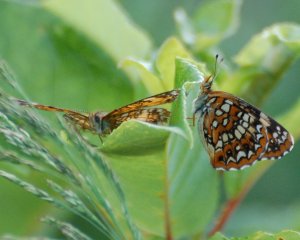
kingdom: Animalia
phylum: Arthropoda
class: Insecta
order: Lepidoptera
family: Nymphalidae
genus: Chlosyne
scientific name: Chlosyne harrisii
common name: Harris's Checkerspot
